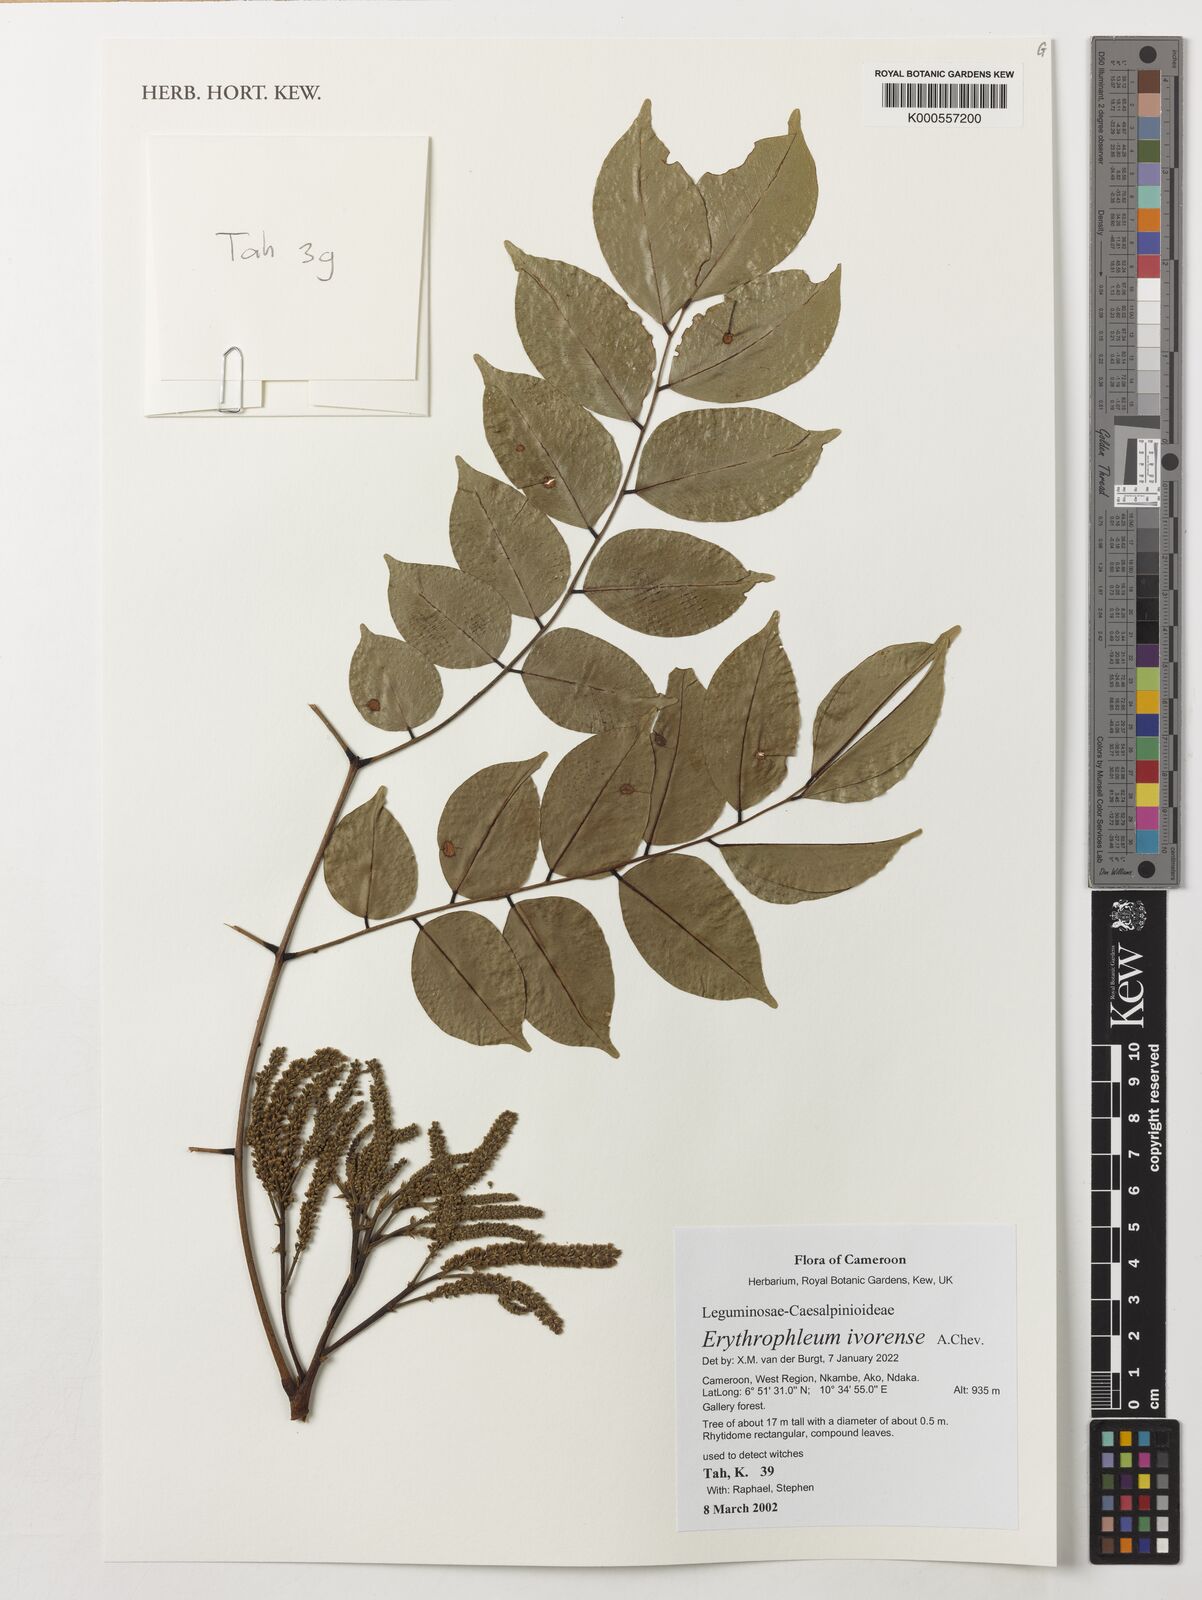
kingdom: Plantae
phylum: Tracheophyta
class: Magnoliopsida
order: Fabales
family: Fabaceae
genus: Erythrophleum
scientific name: Erythrophleum ivorense
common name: Ordealtree
